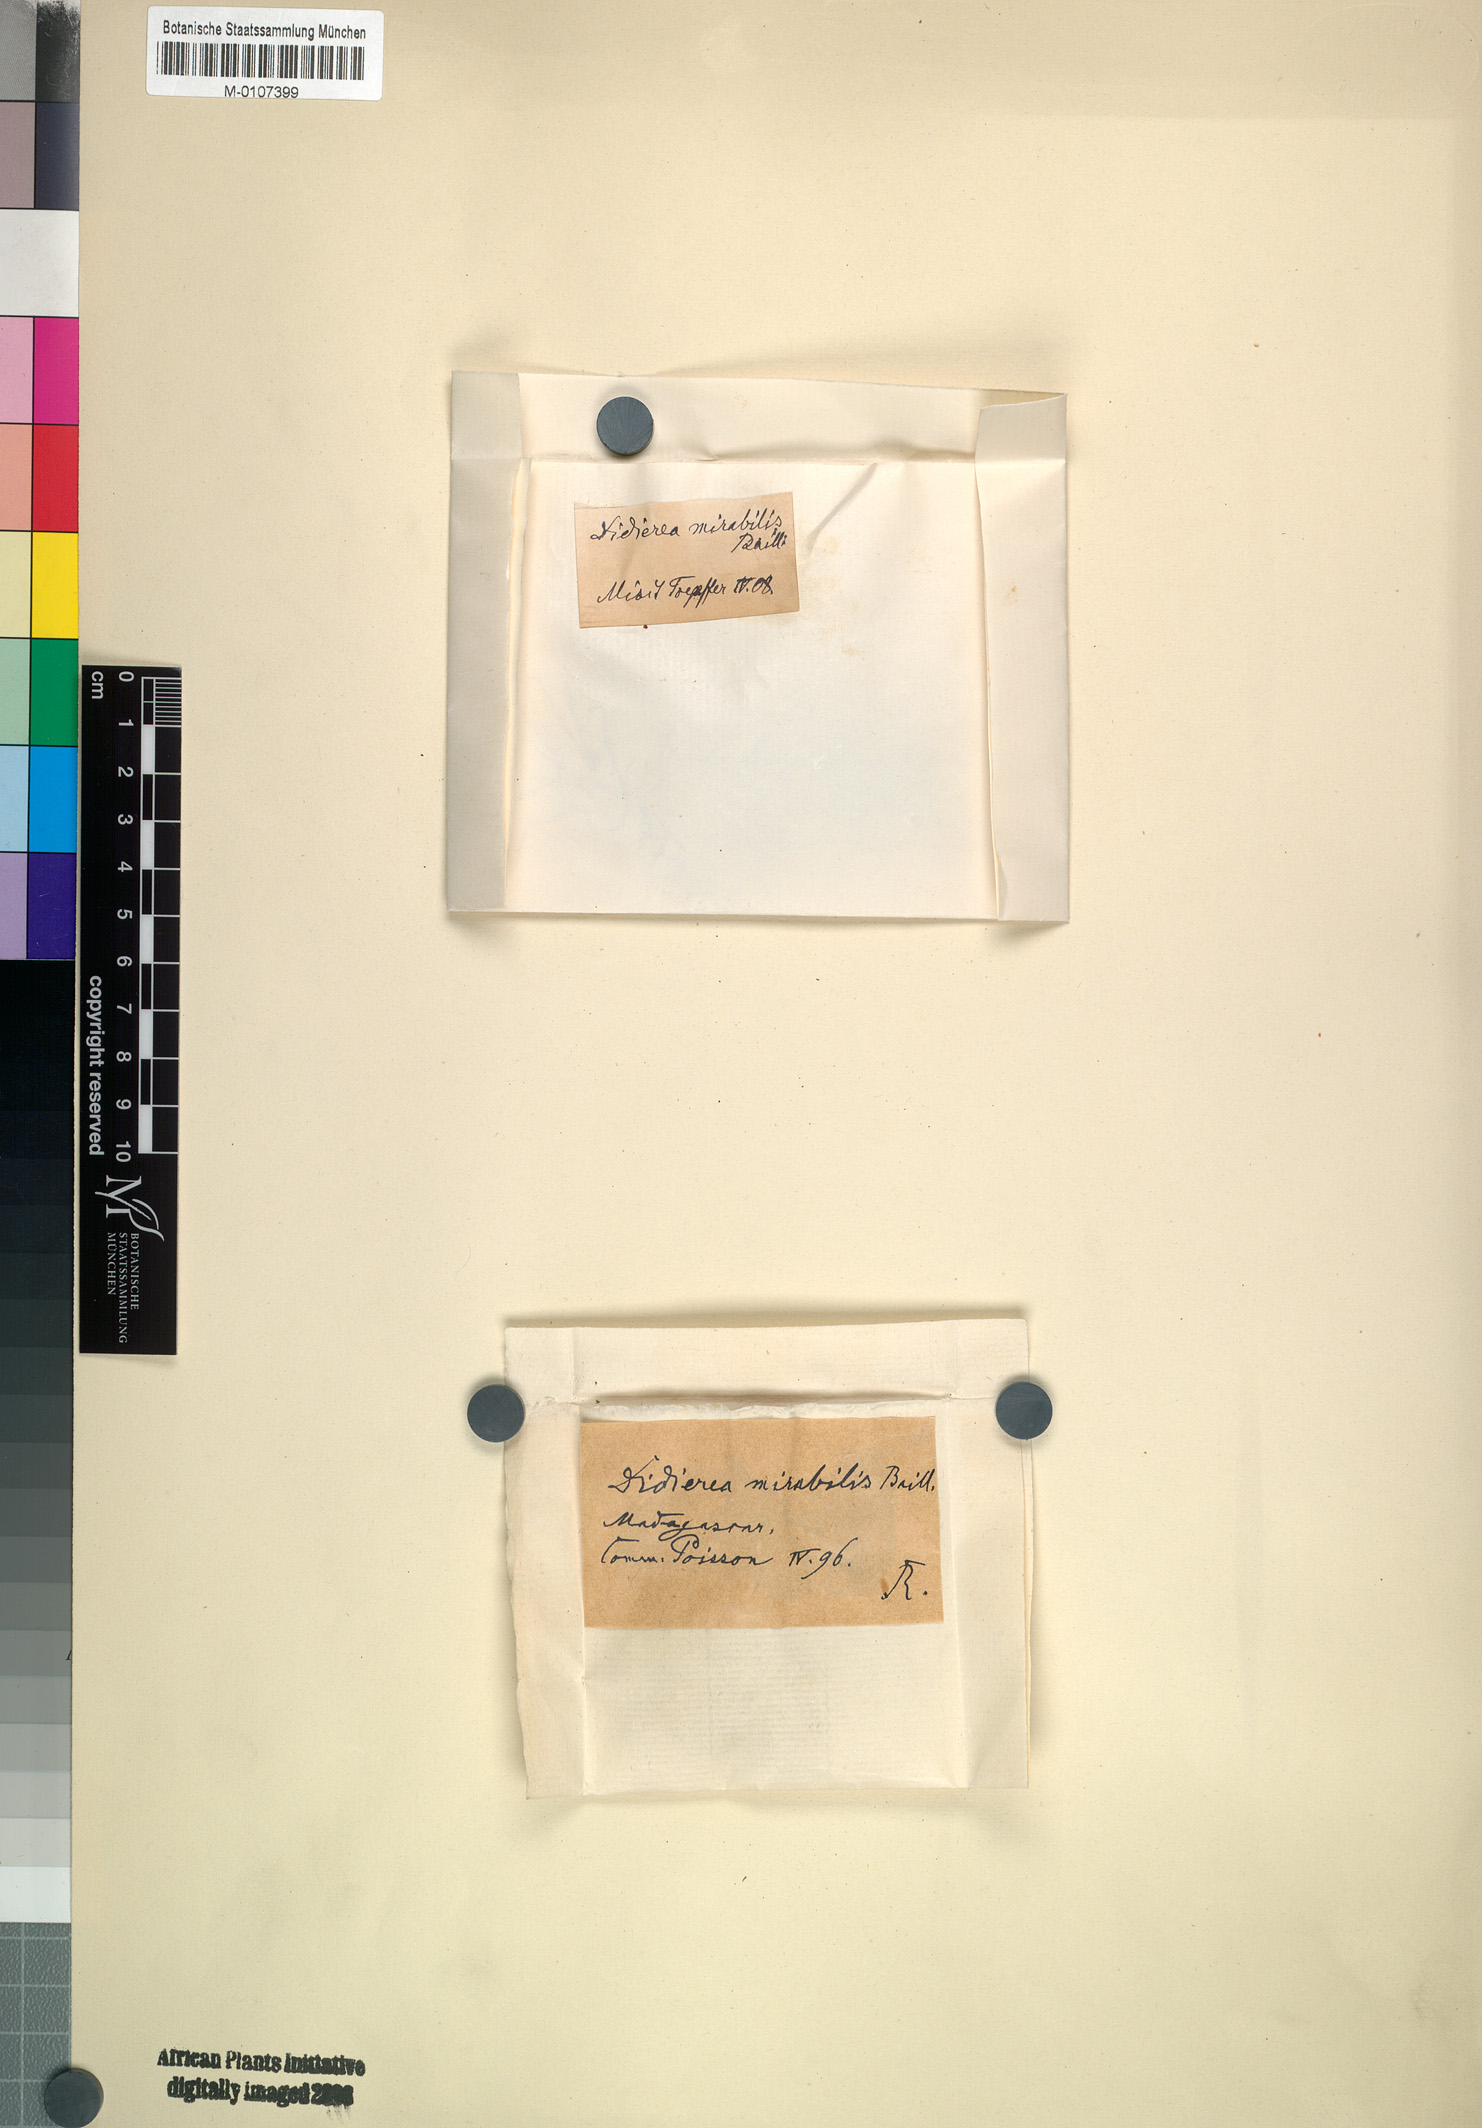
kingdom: Plantae
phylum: Tracheophyta
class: Magnoliopsida
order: Caryophyllales
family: Didiereaceae
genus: Didierea
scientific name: Didierea madagascariensis
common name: Octopus-tree
